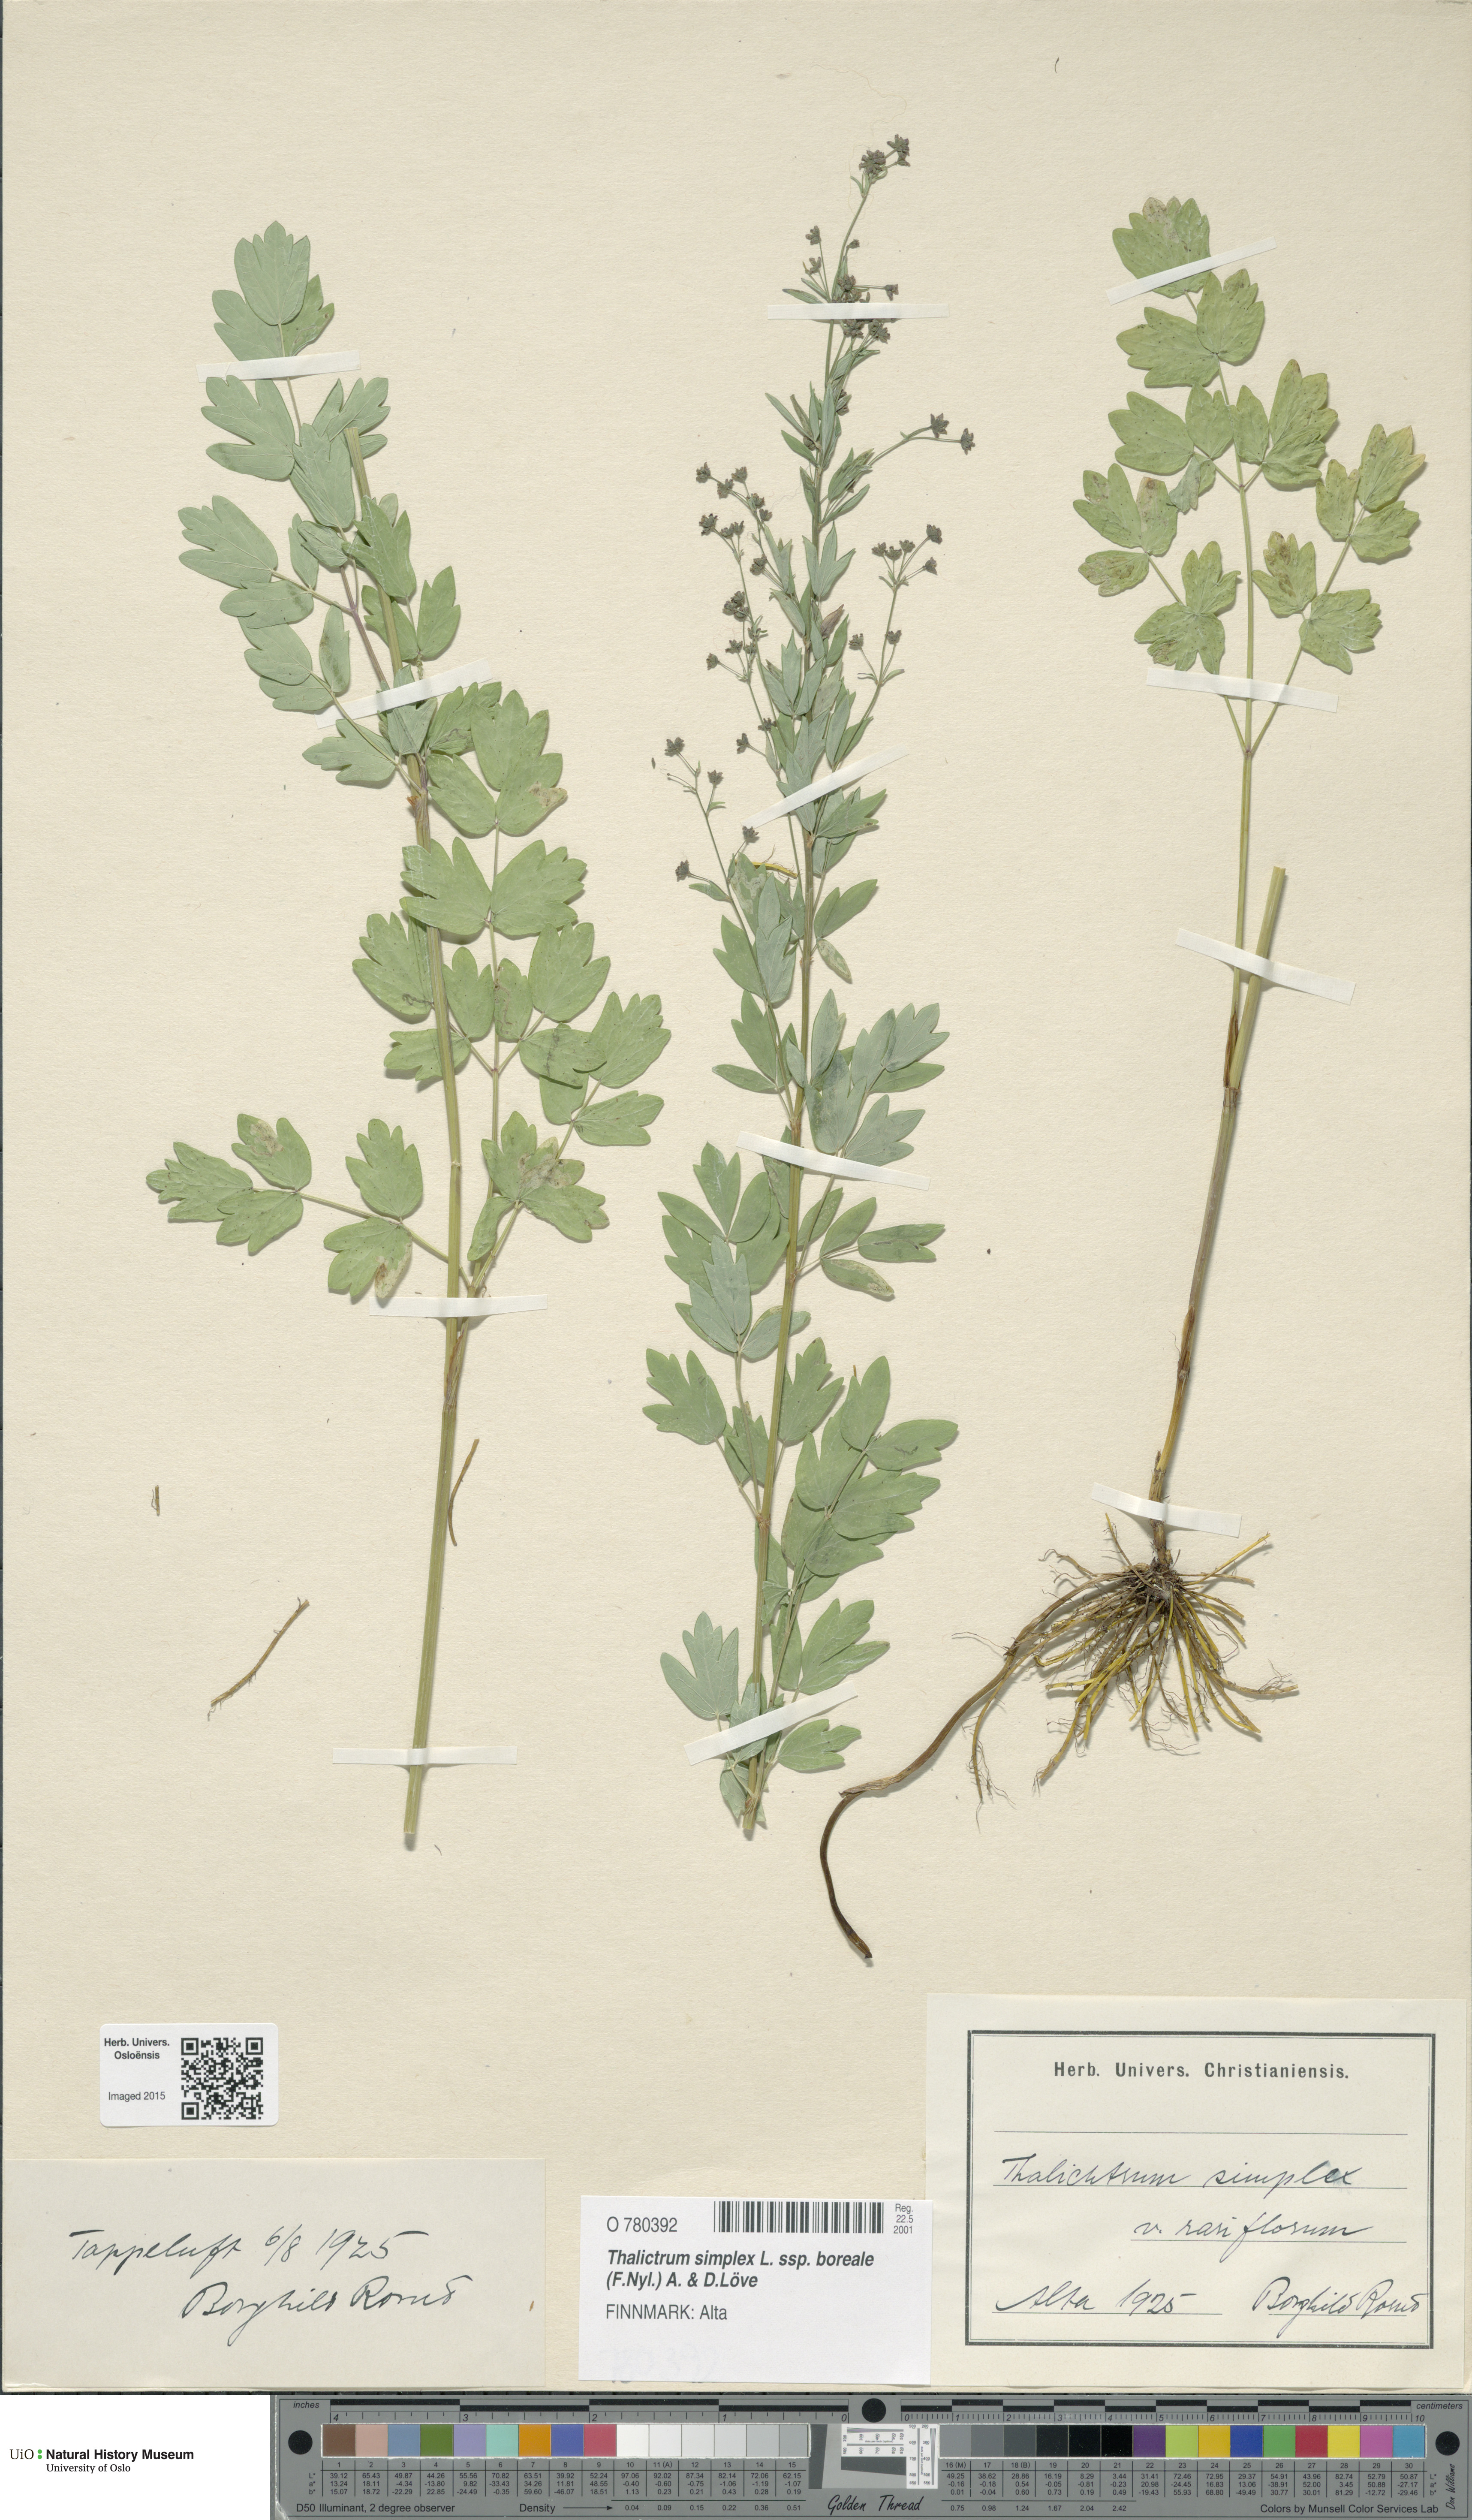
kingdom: Plantae
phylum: Tracheophyta
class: Magnoliopsida
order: Ranunculales
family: Ranunculaceae
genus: Thalictrum
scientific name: Thalictrum simplex
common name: Small meadow-rue
